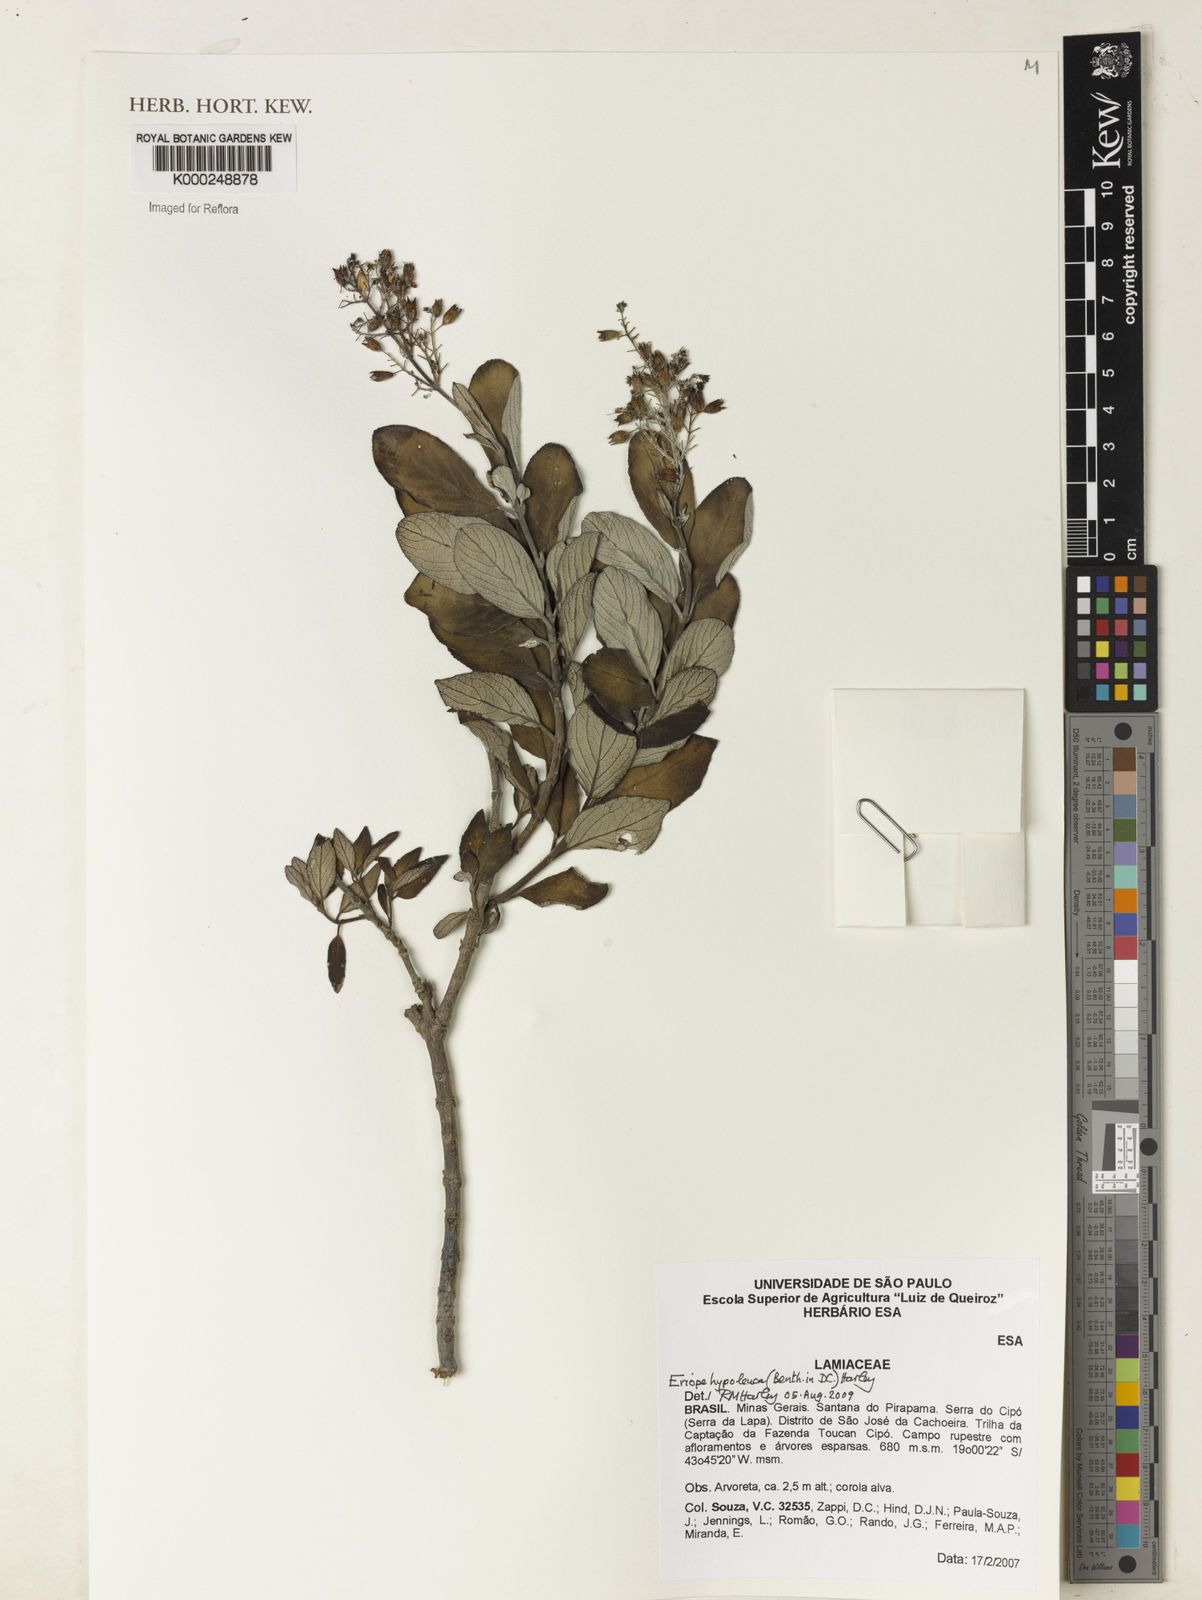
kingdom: Plantae
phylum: Tracheophyta
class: Magnoliopsida
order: Lamiales
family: Lamiaceae
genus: Eriope
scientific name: Eriope hypoleuca
